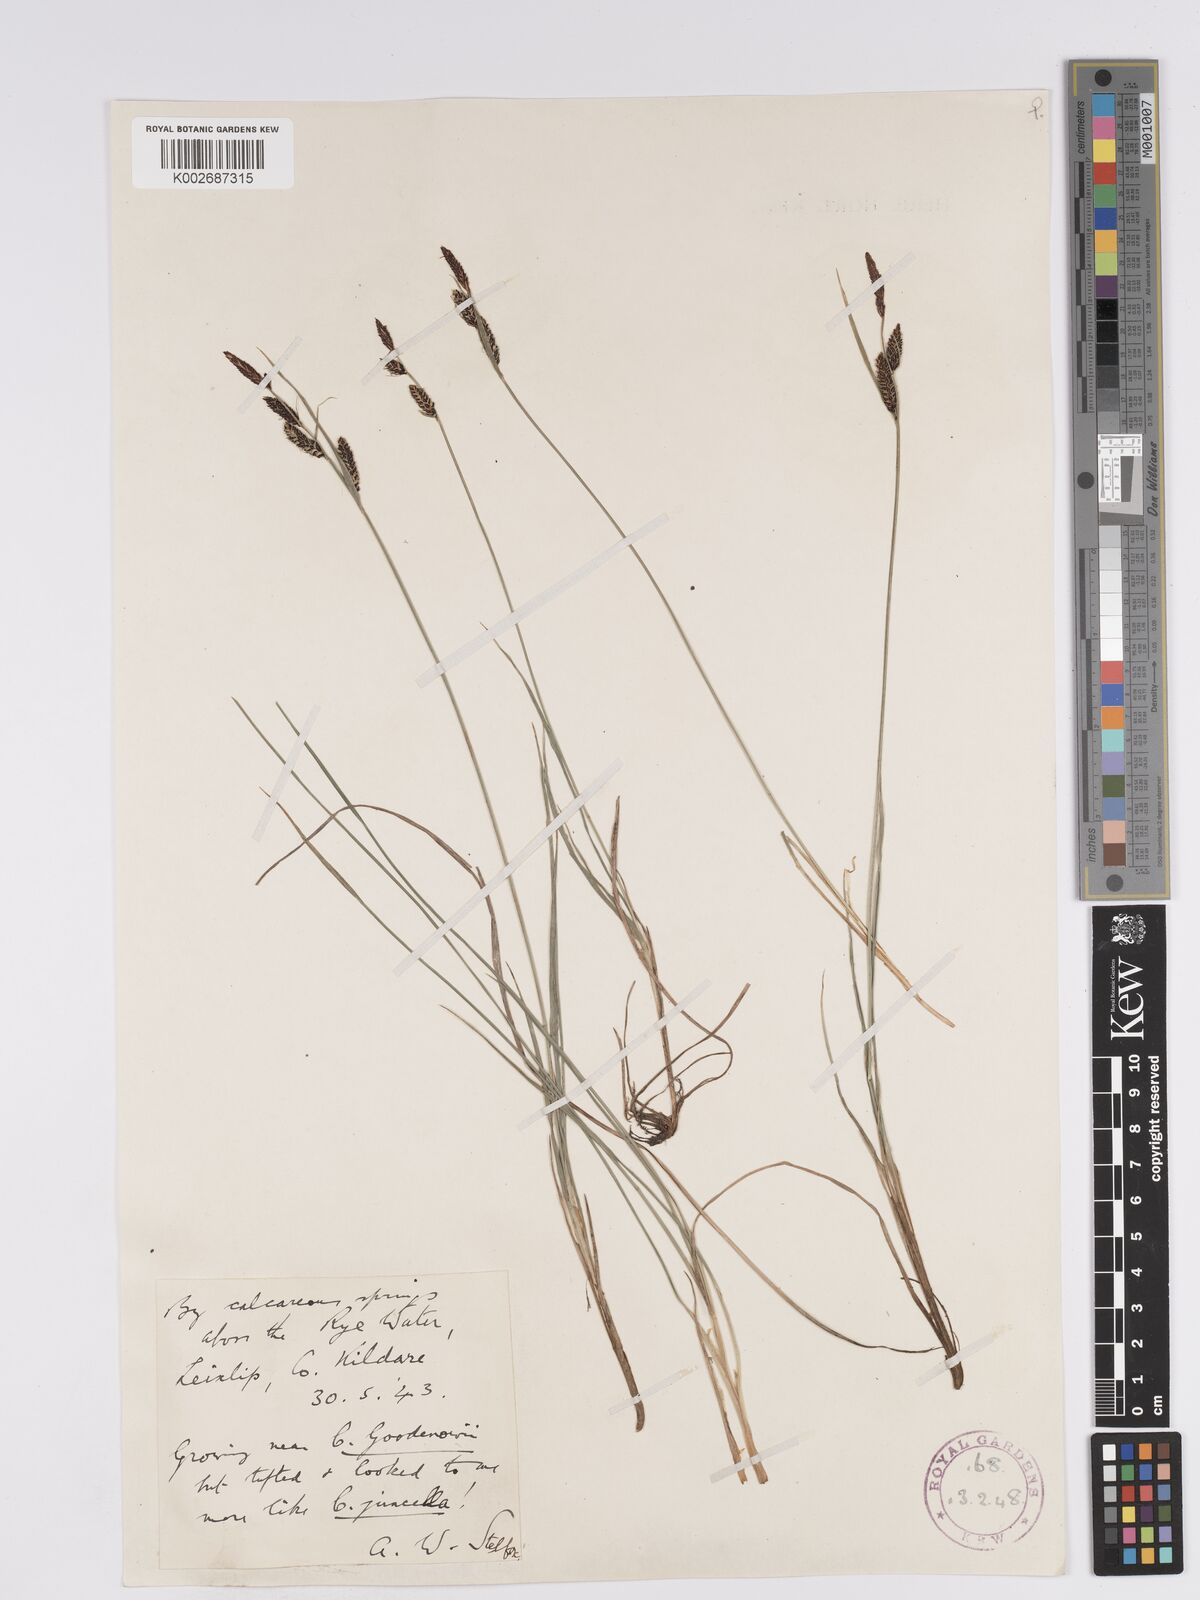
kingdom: Plantae
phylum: Tracheophyta
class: Liliopsida
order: Poales
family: Cyperaceae
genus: Carex
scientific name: Carex nigra
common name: Common sedge
